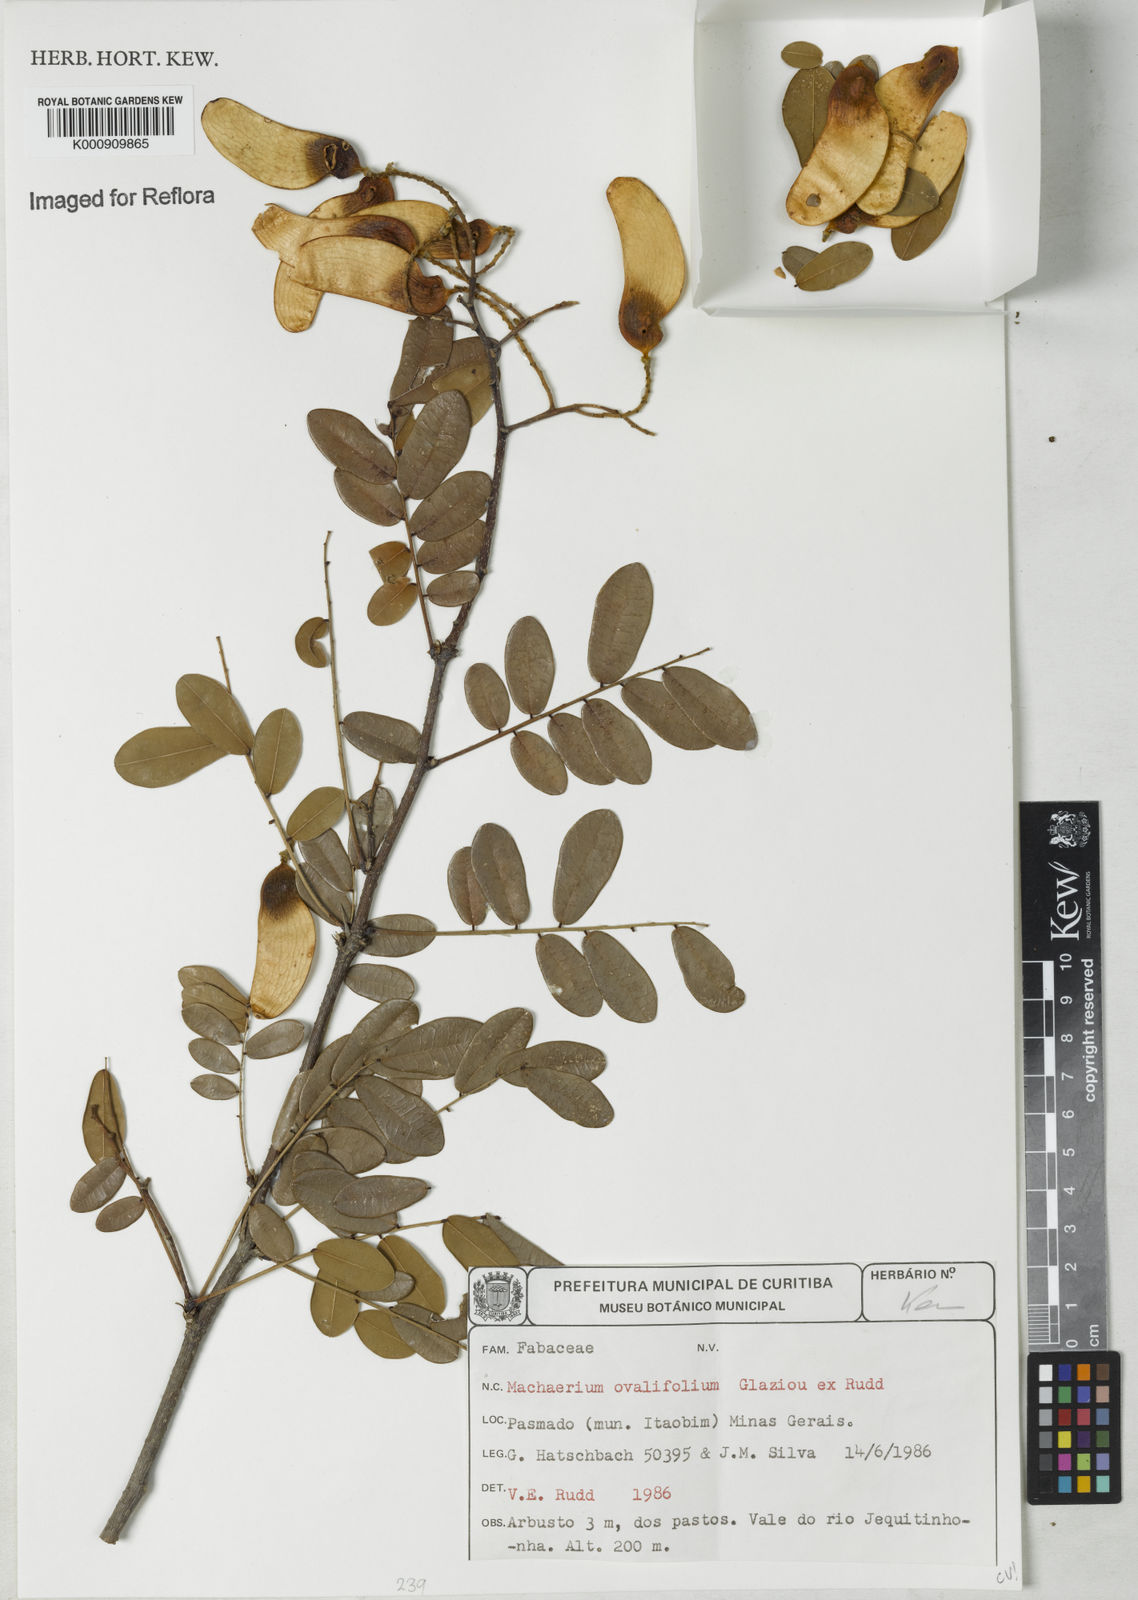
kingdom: Plantae
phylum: Tracheophyta
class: Magnoliopsida
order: Fabales
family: Fabaceae
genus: Machaerium
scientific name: Machaerium ovalifolium
